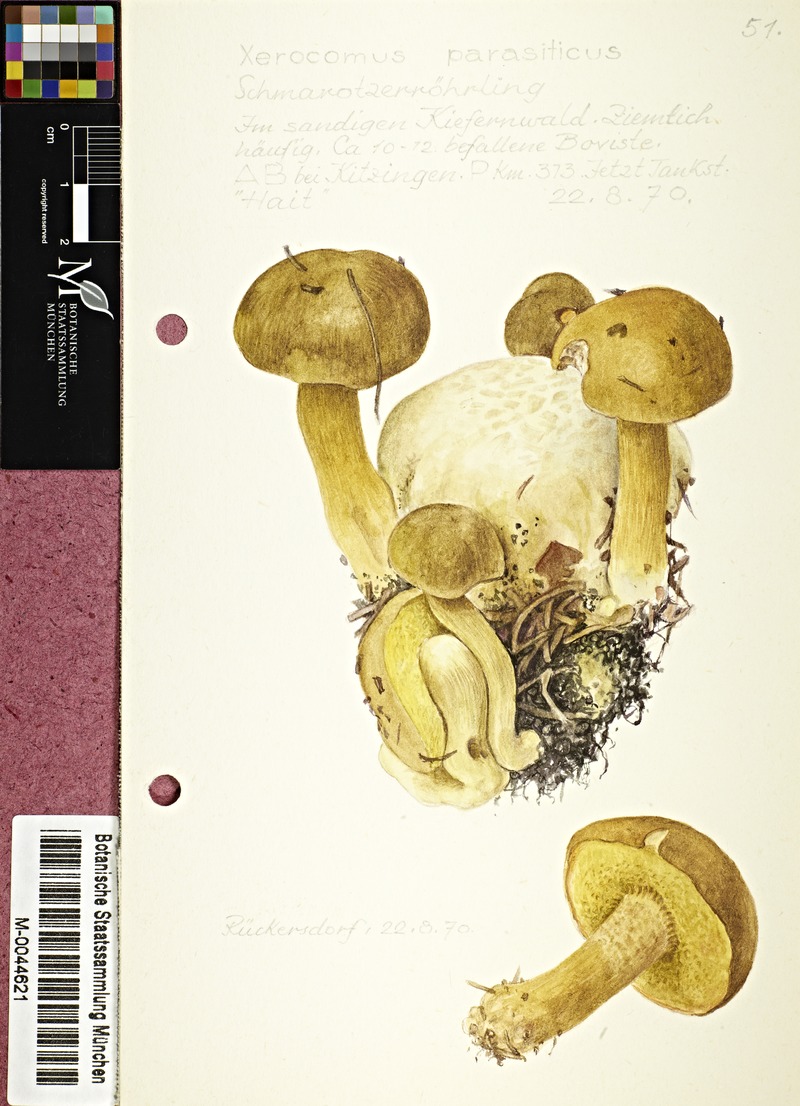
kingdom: Fungi
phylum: Basidiomycota
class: Agaricomycetes
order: Boletales
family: Boletaceae
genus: Pseudoboletus
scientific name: Pseudoboletus parasiticus
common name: Parasitic bolete
